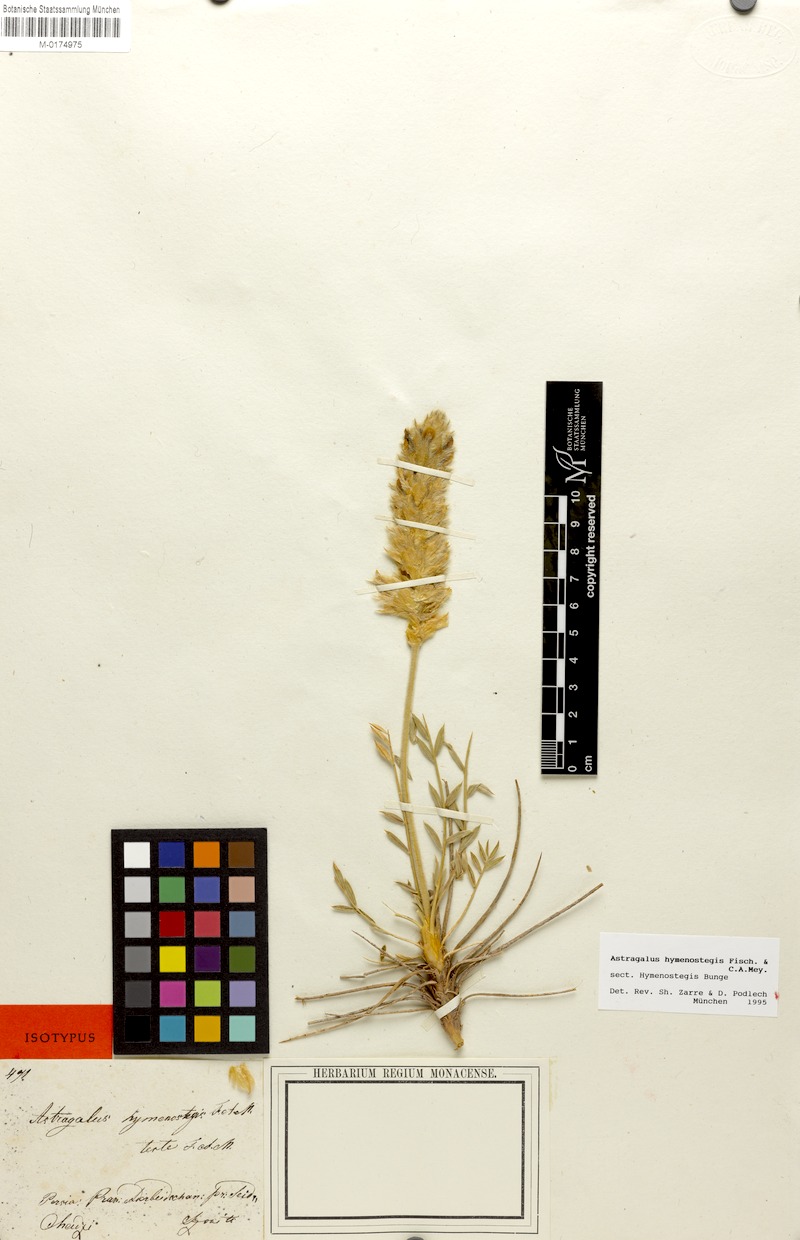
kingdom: Plantae
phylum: Tracheophyta
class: Magnoliopsida
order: Fabales
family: Fabaceae
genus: Astragalus
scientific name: Astragalus hymenostegis
